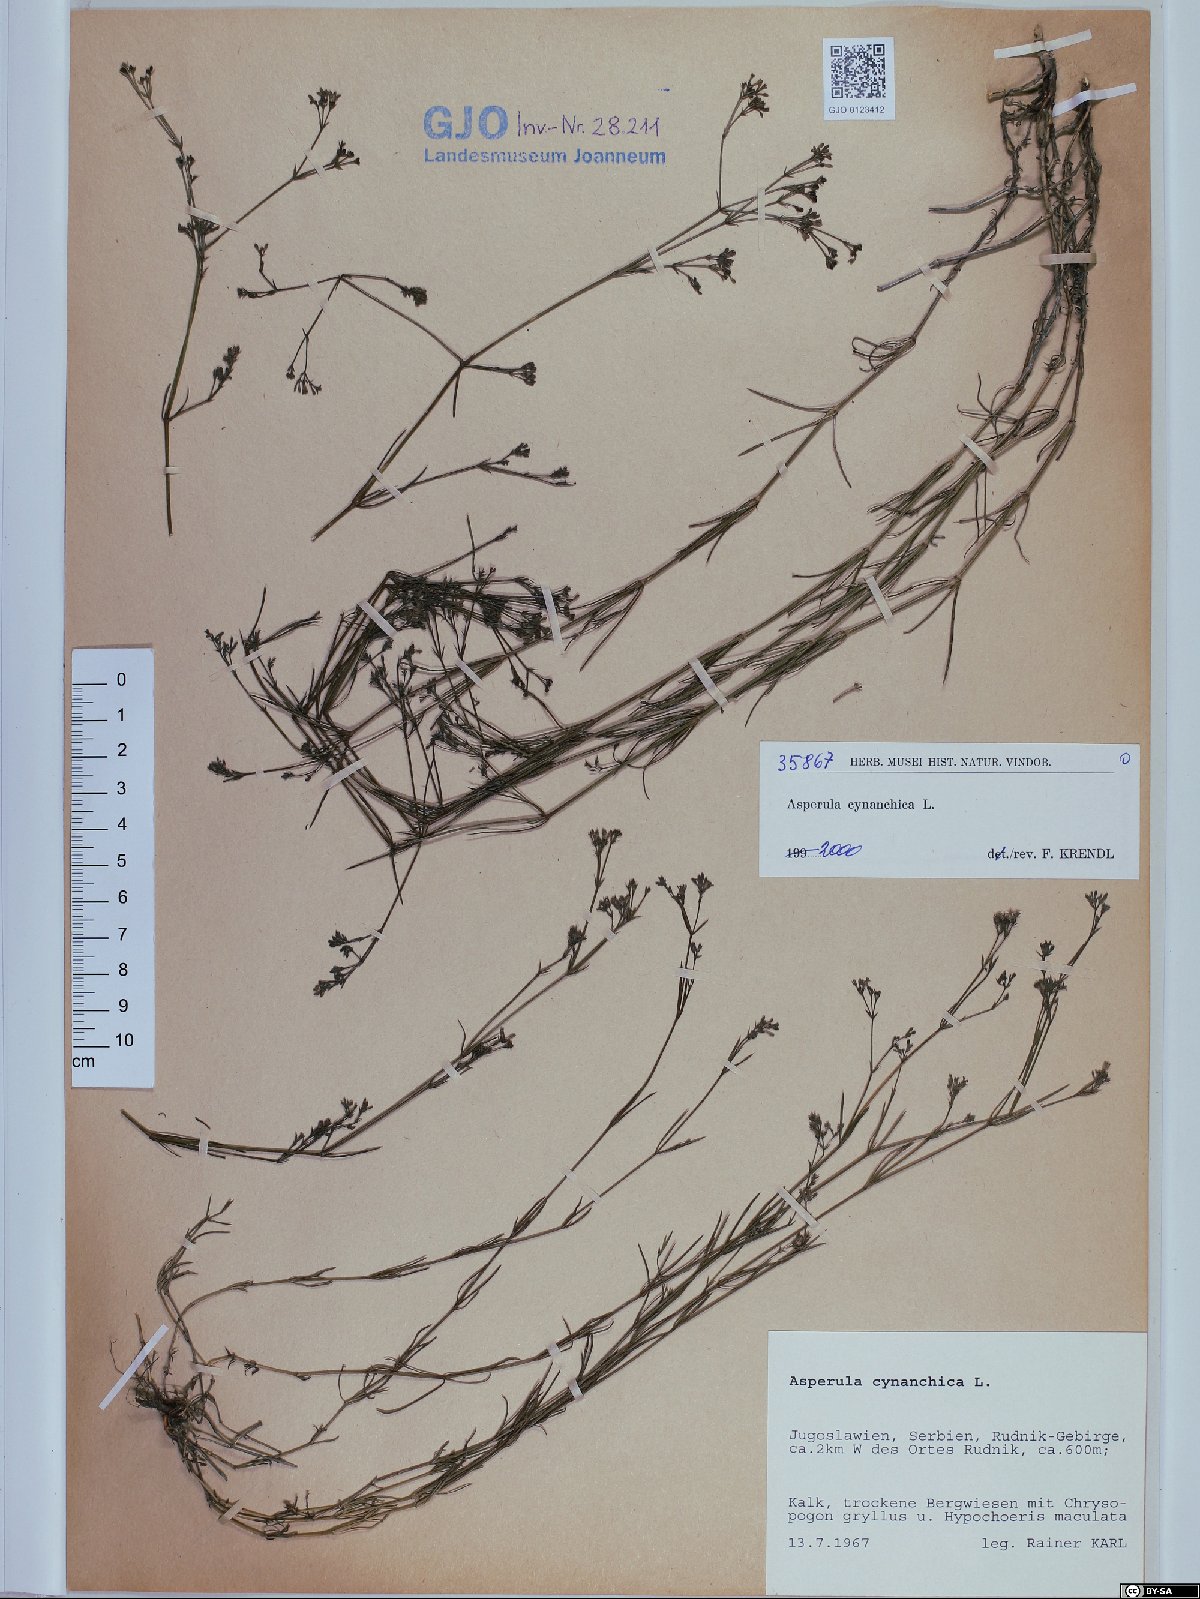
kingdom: Plantae
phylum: Tracheophyta
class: Magnoliopsida
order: Gentianales
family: Rubiaceae
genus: Cynanchica
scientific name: Cynanchica pyrenaica
